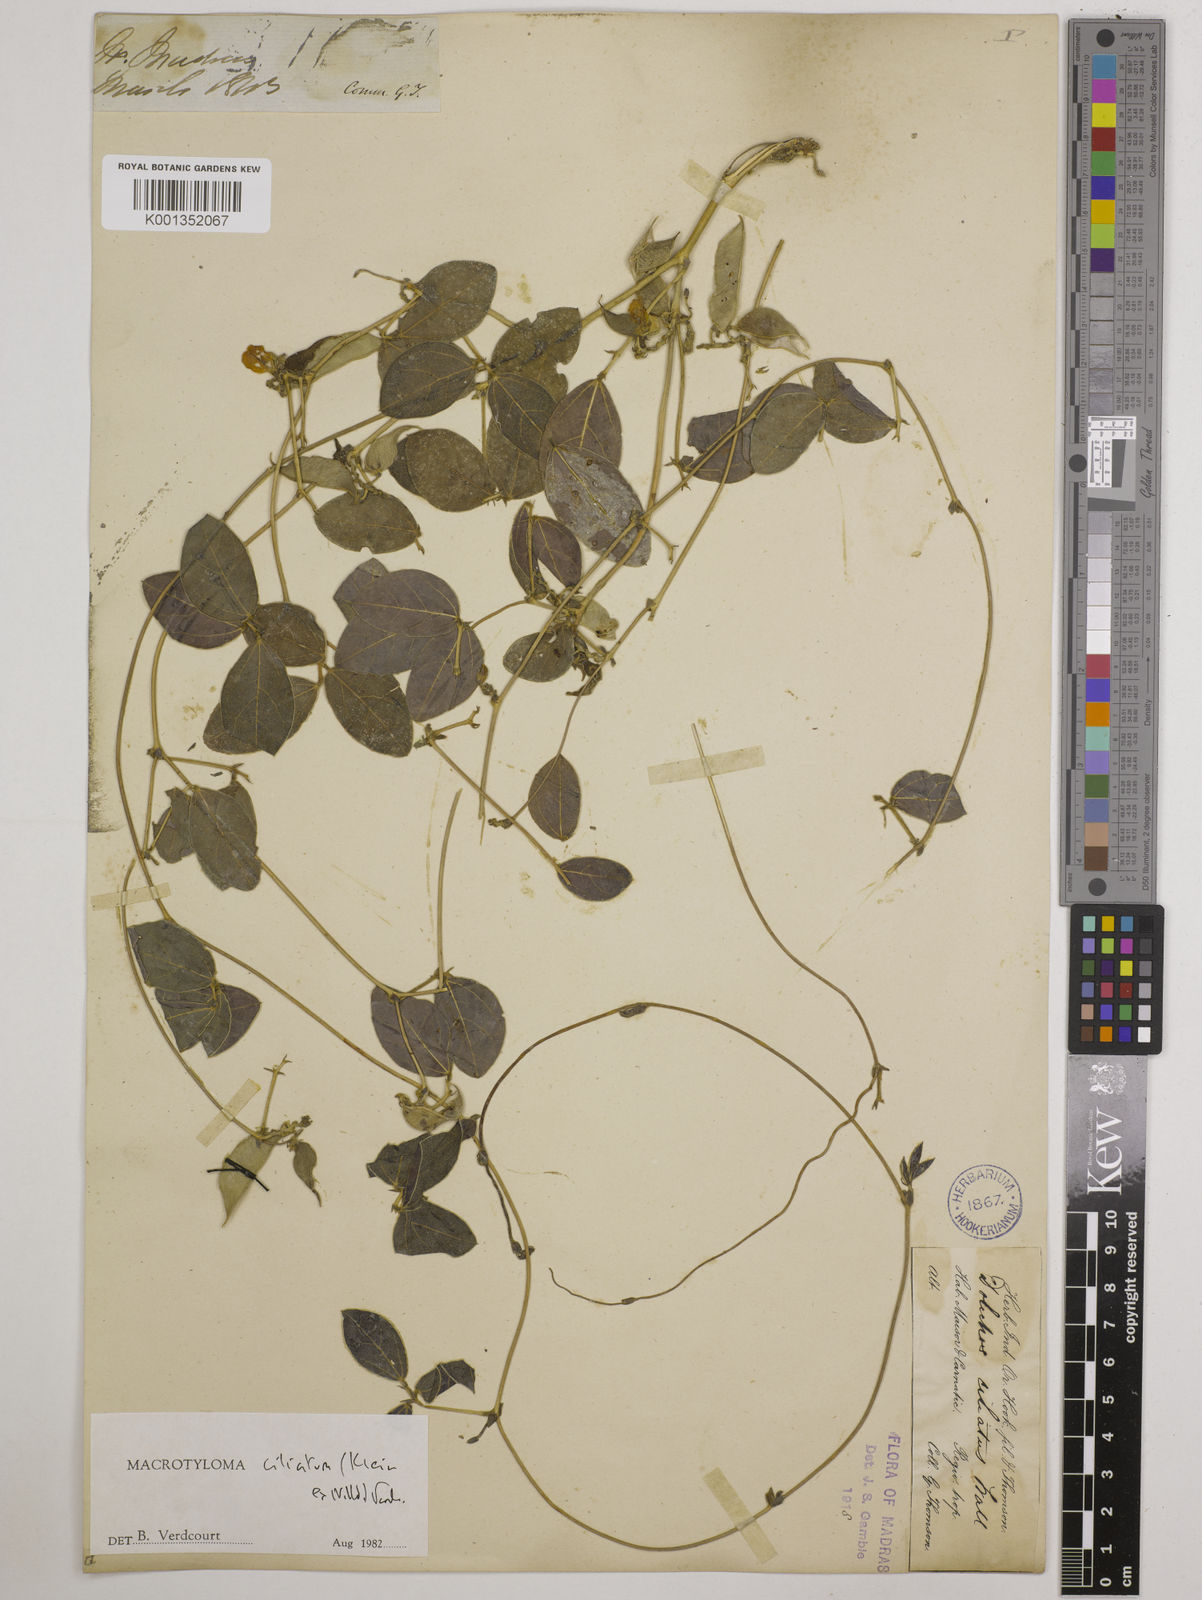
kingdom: Plantae
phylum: Tracheophyta
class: Magnoliopsida
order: Fabales
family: Fabaceae
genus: Macrotyloma
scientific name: Macrotyloma ciliatum
